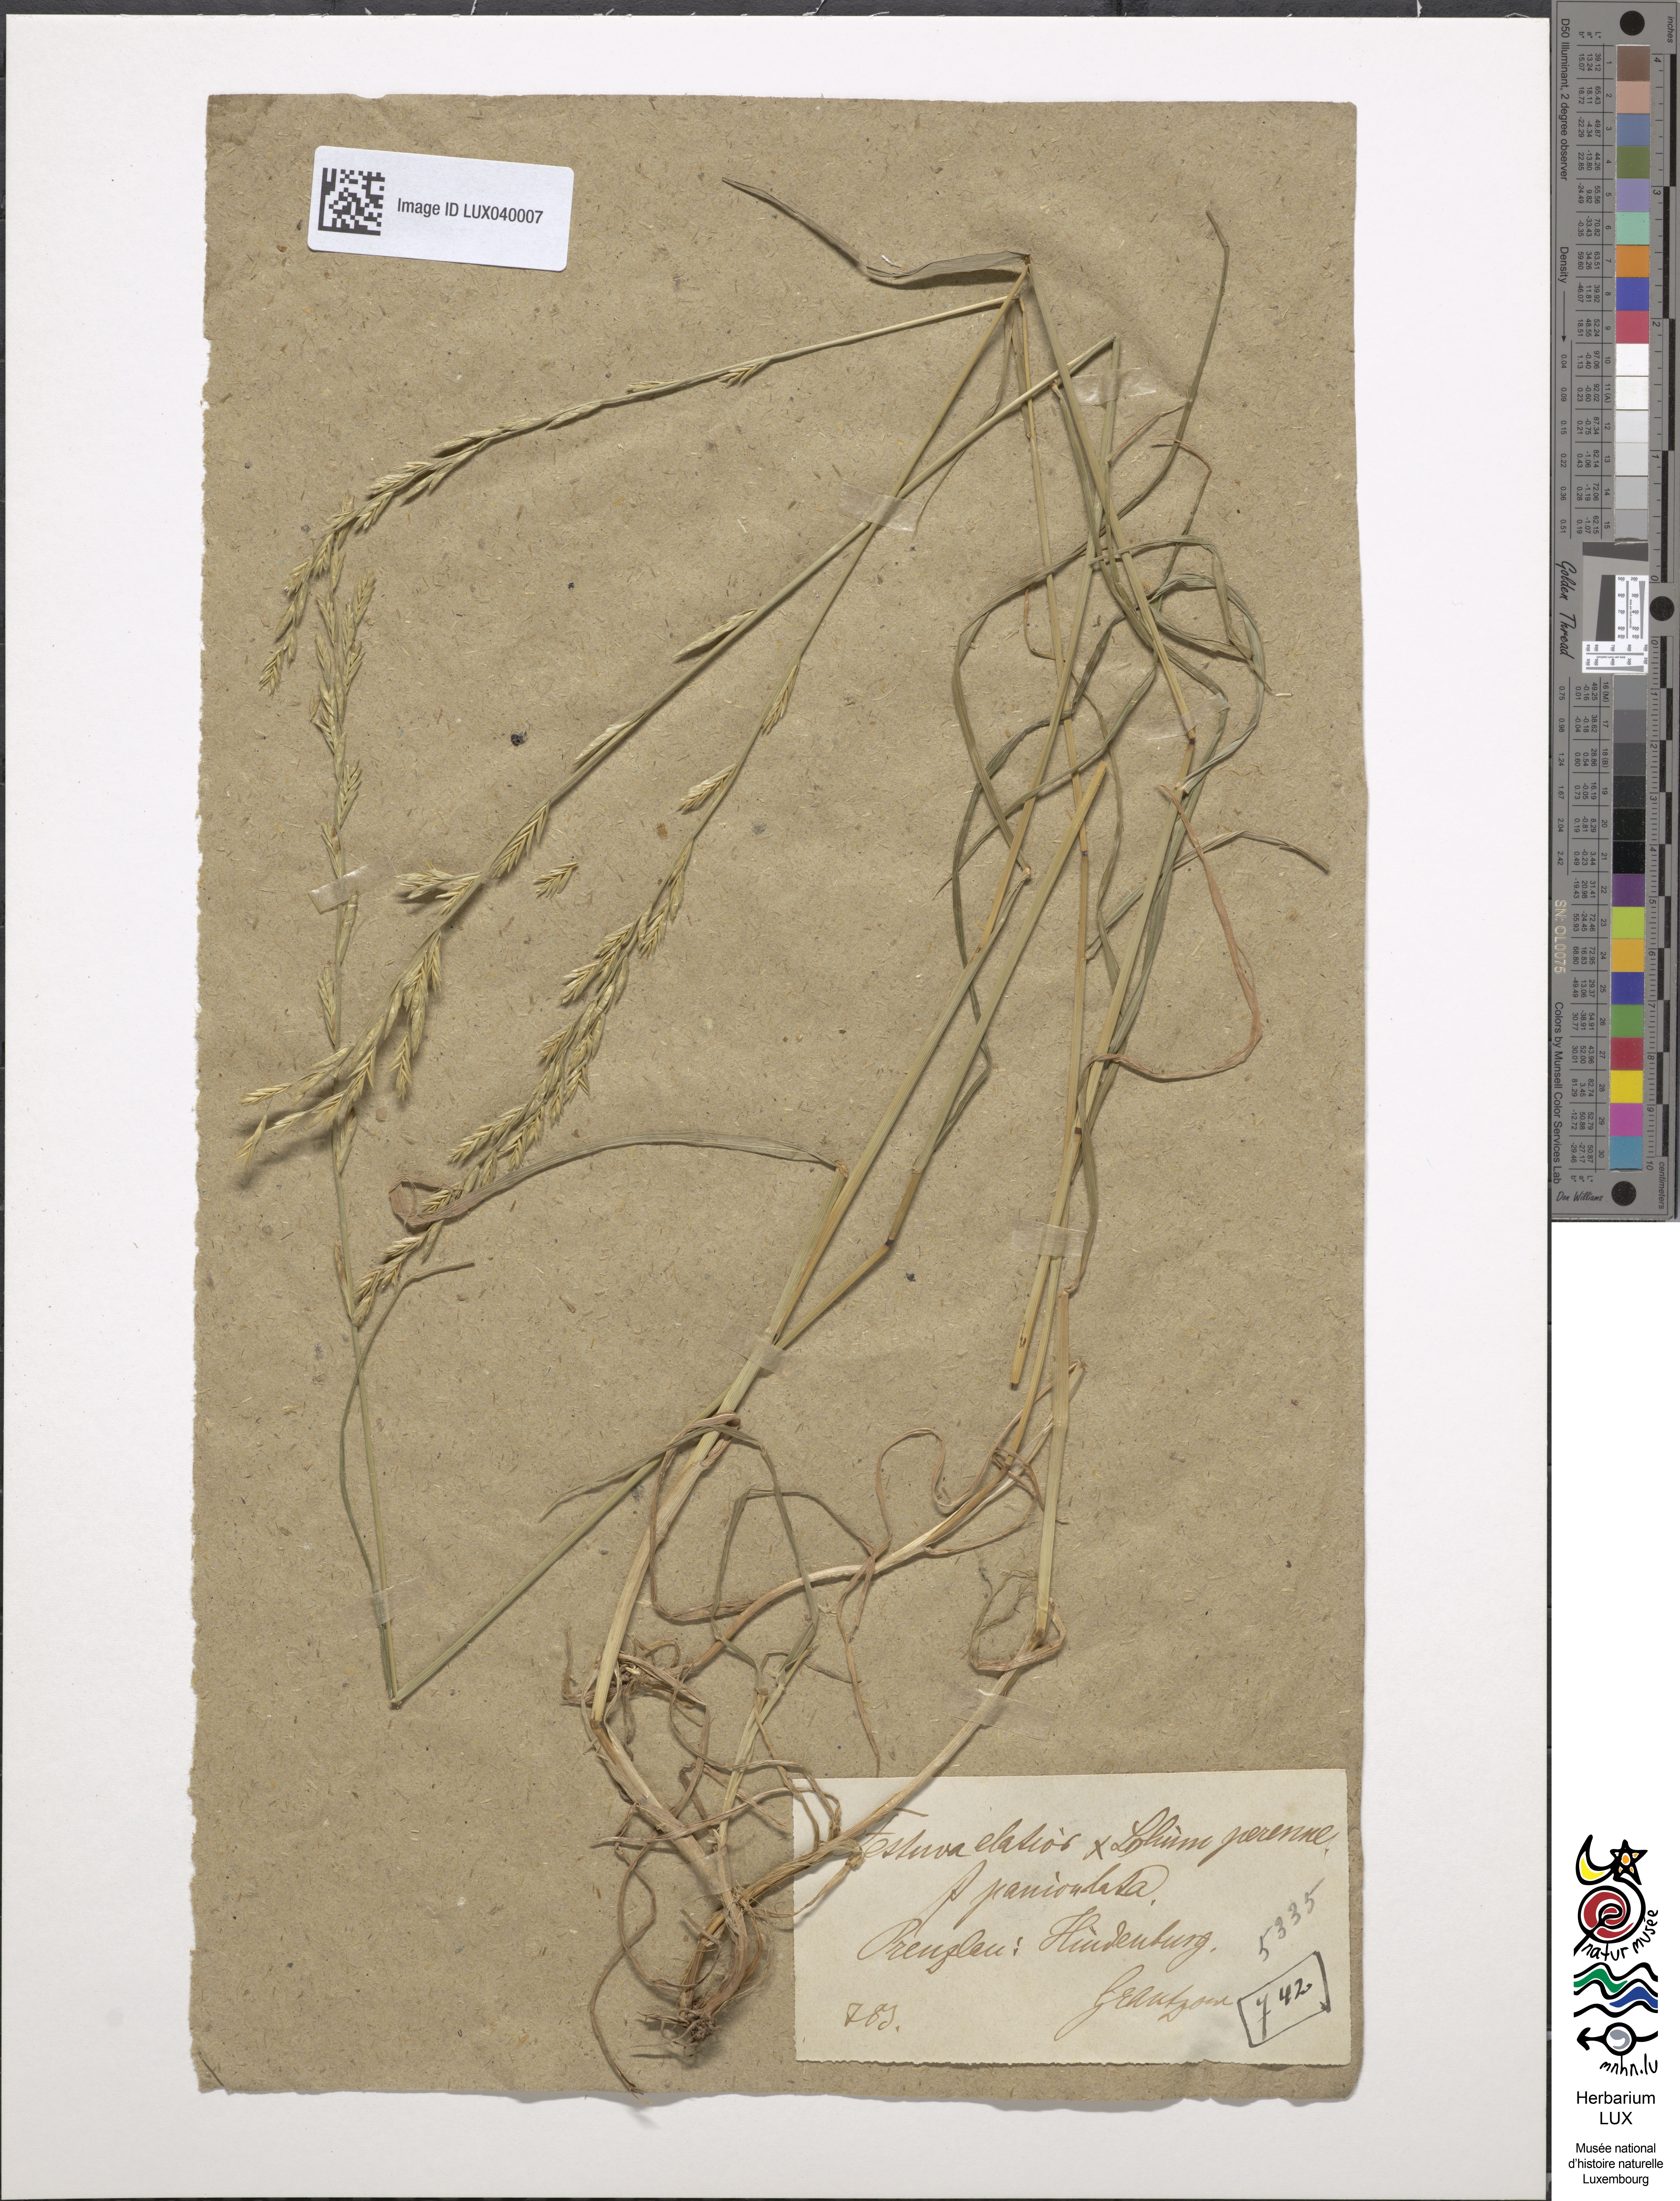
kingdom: Plantae
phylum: Tracheophyta
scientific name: Tracheophyta
